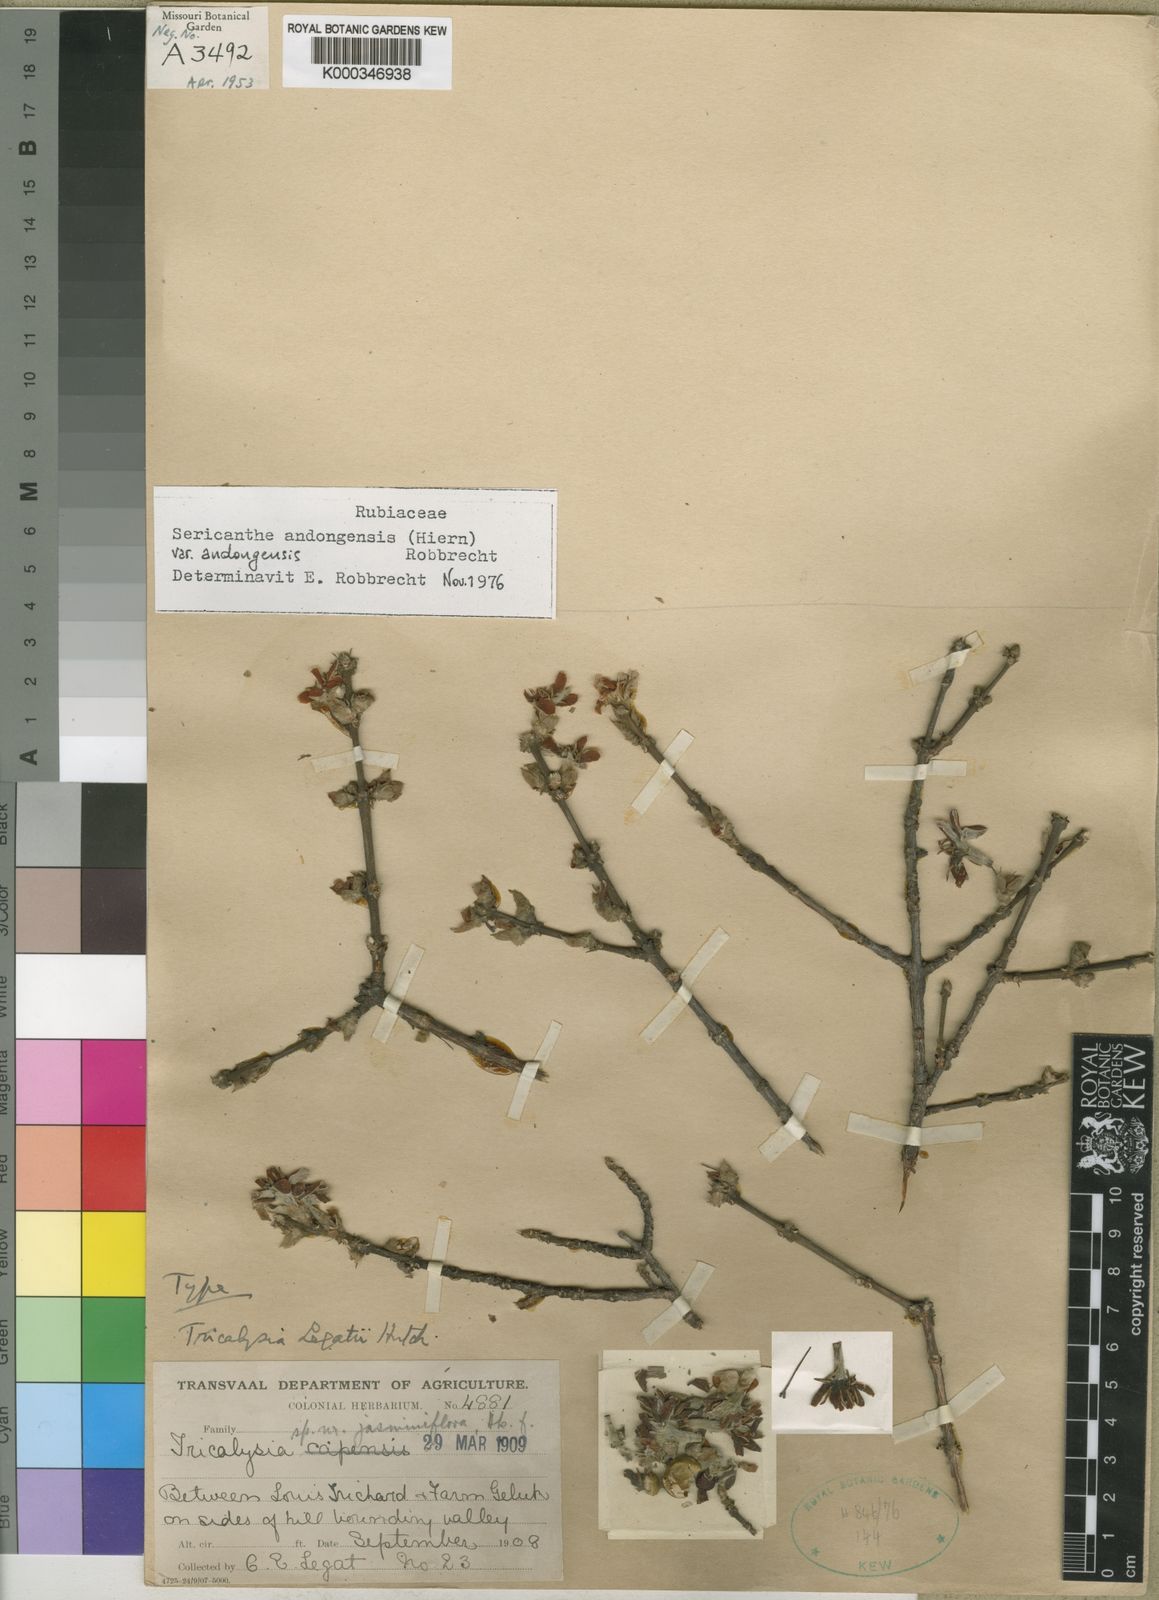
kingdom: Plantae
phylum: Tracheophyta
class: Magnoliopsida
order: Gentianales
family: Rubiaceae
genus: Sericanthe
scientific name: Sericanthe andongensis
